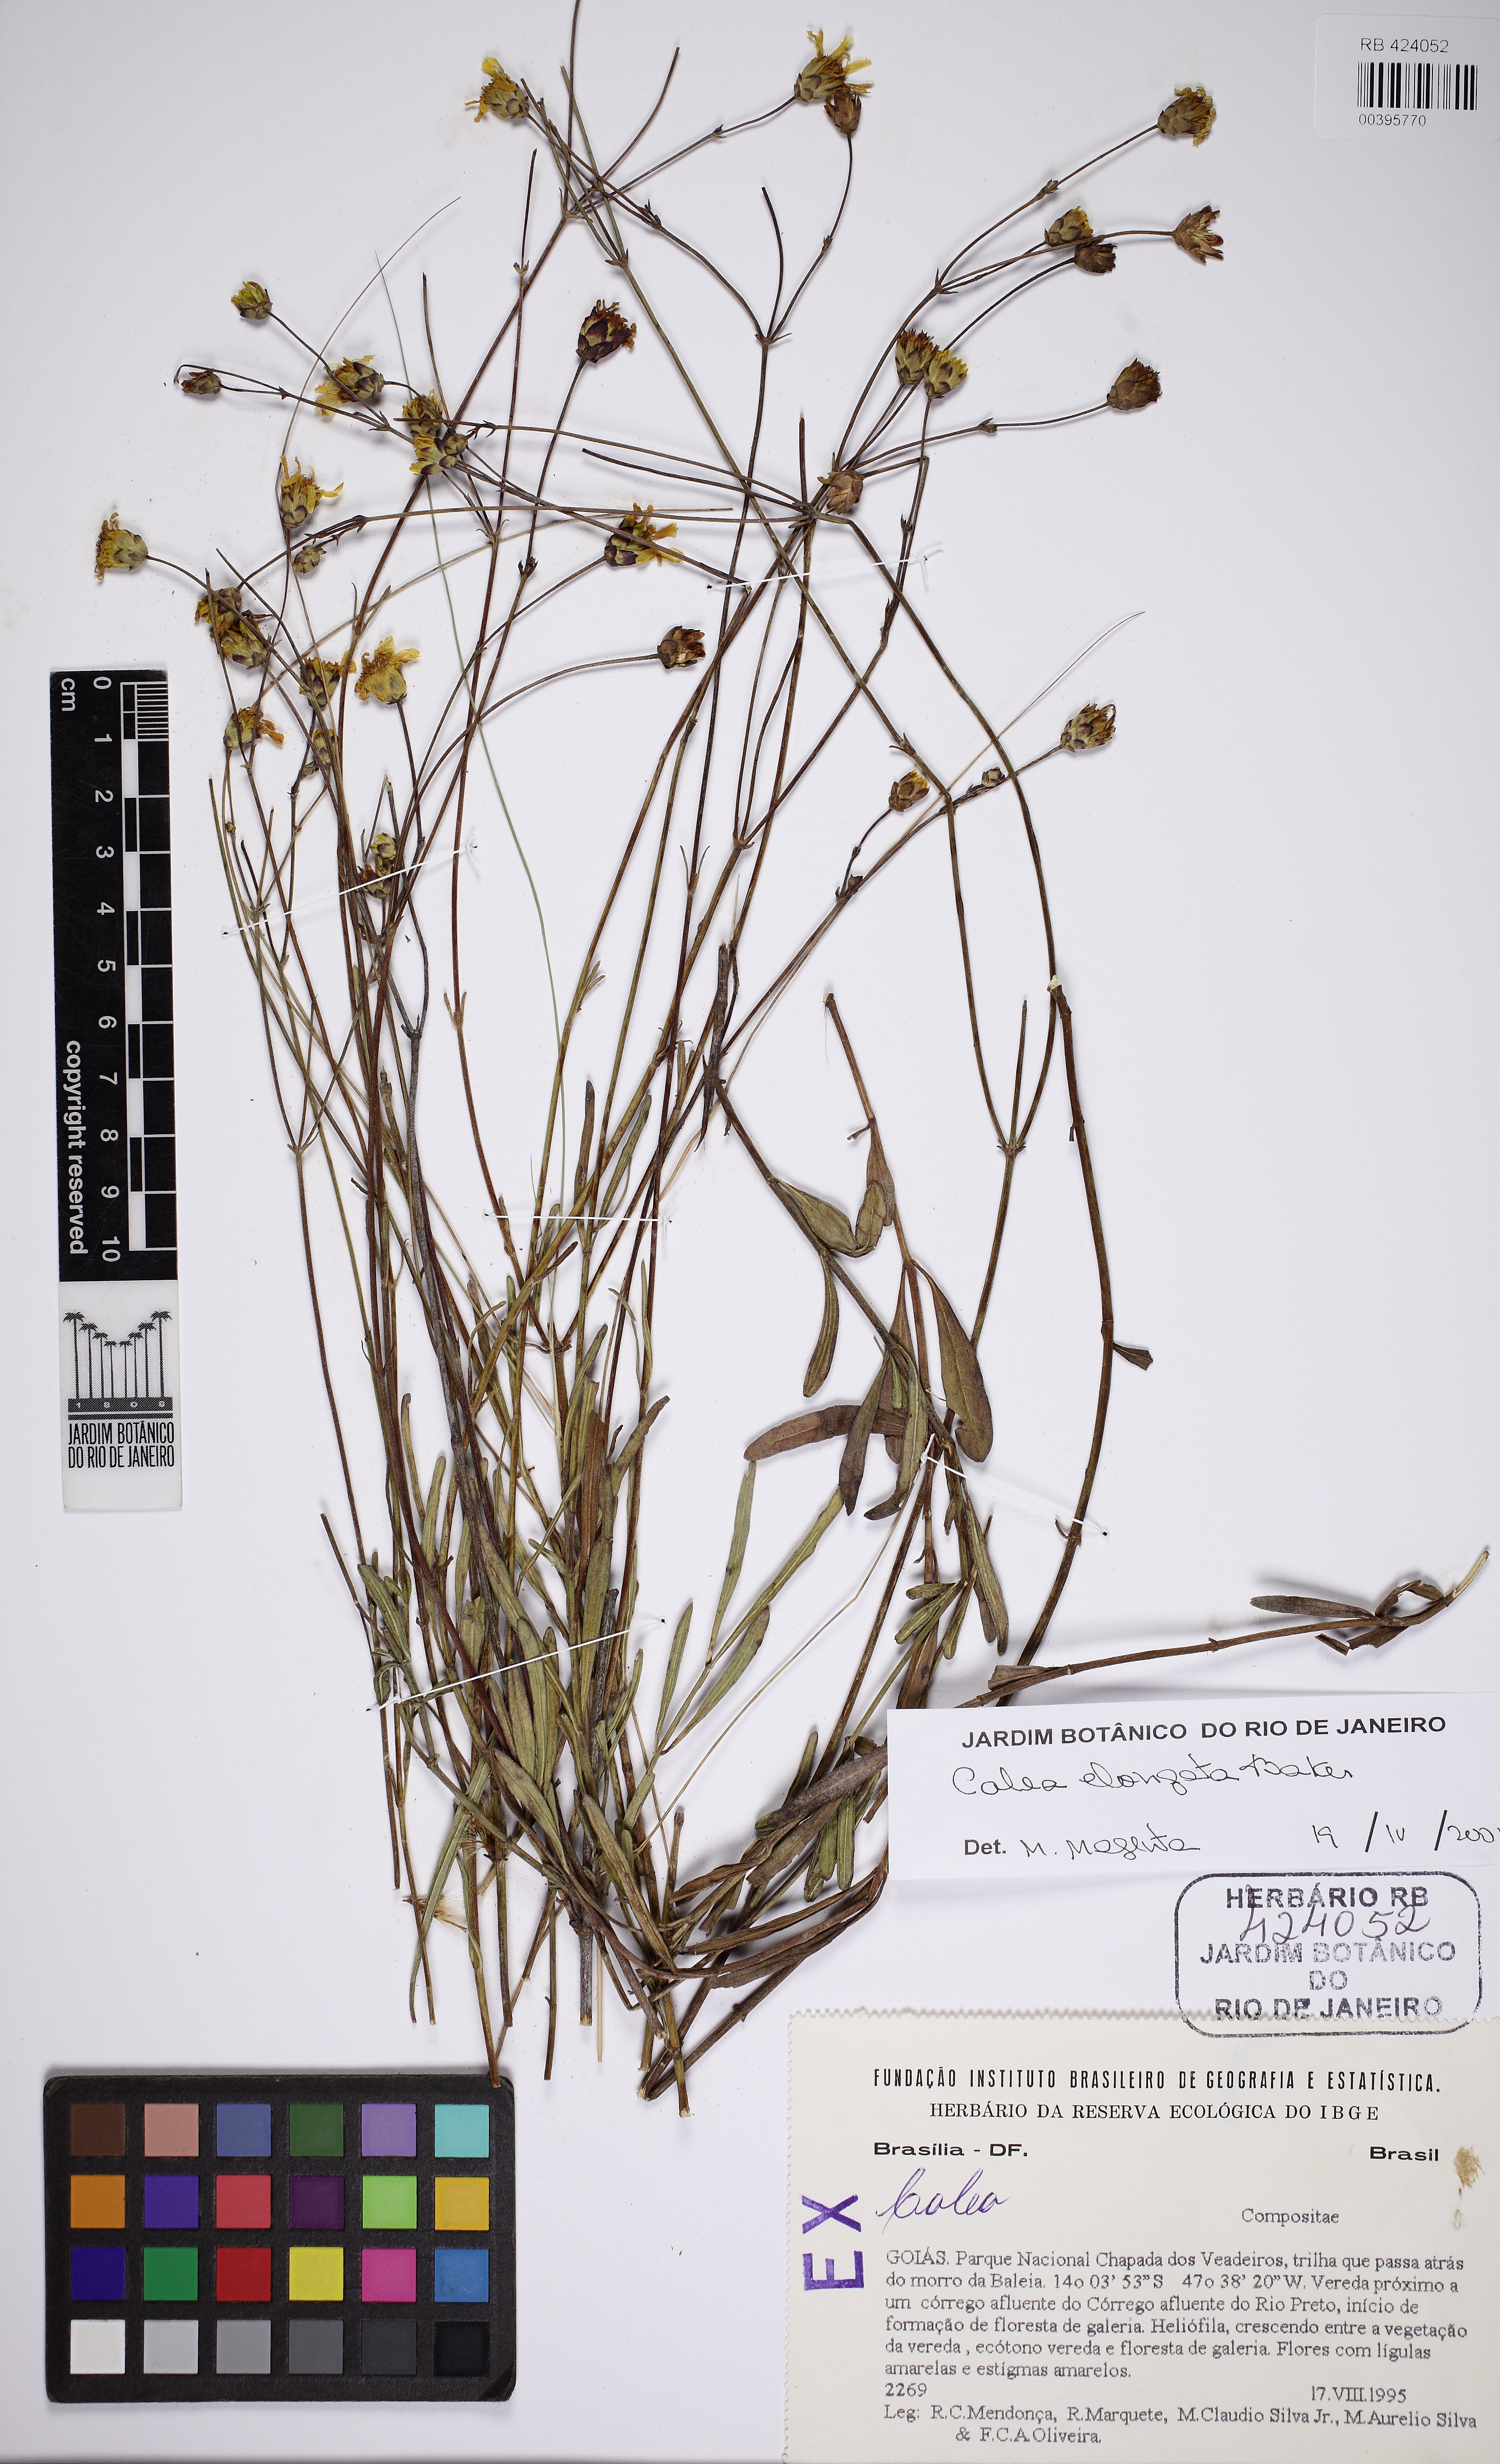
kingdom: Plantae
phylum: Tracheophyta
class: Magnoliopsida
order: Asterales
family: Asteraceae
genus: Calea
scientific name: Calea elongata
